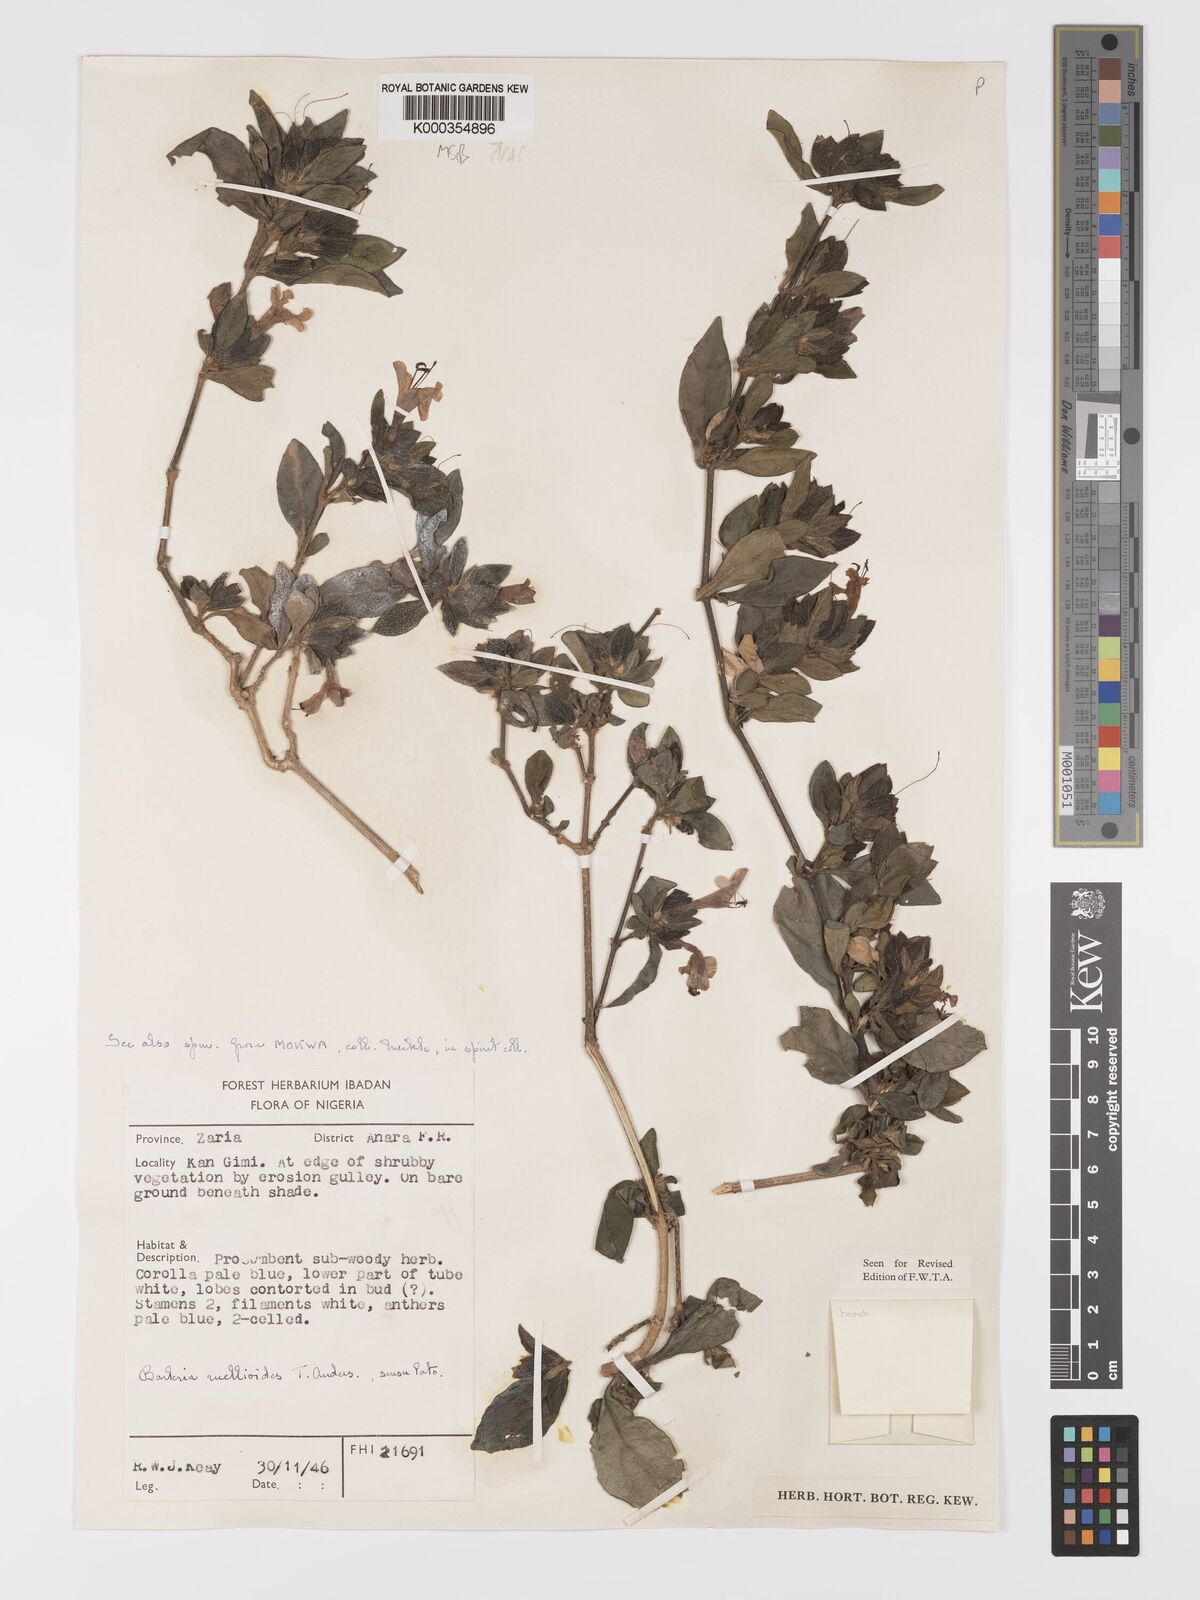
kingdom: Plantae
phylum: Tracheophyta
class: Magnoliopsida
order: Lamiales
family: Acanthaceae
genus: Barleria
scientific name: Barleria ruellioides
